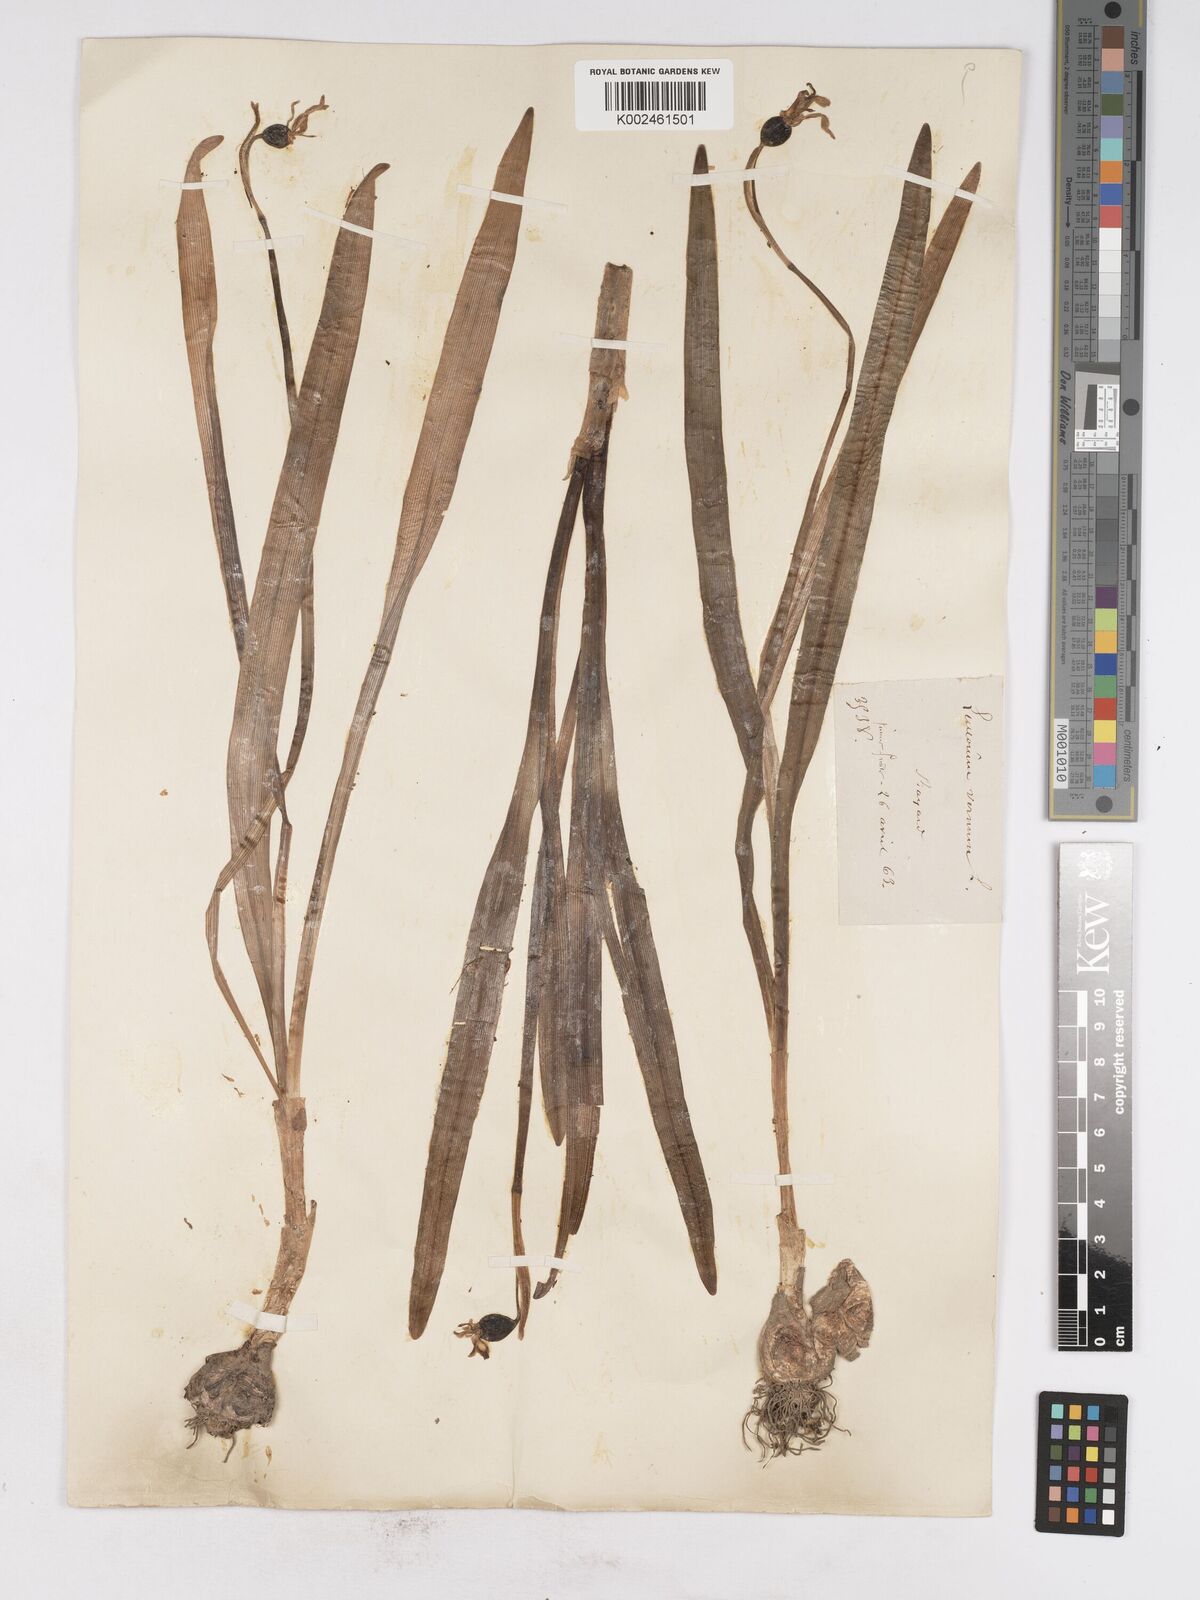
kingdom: Plantae
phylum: Tracheophyta
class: Liliopsida
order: Asparagales
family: Amaryllidaceae
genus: Leucojum
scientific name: Leucojum vernum
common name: Spring snowflake
